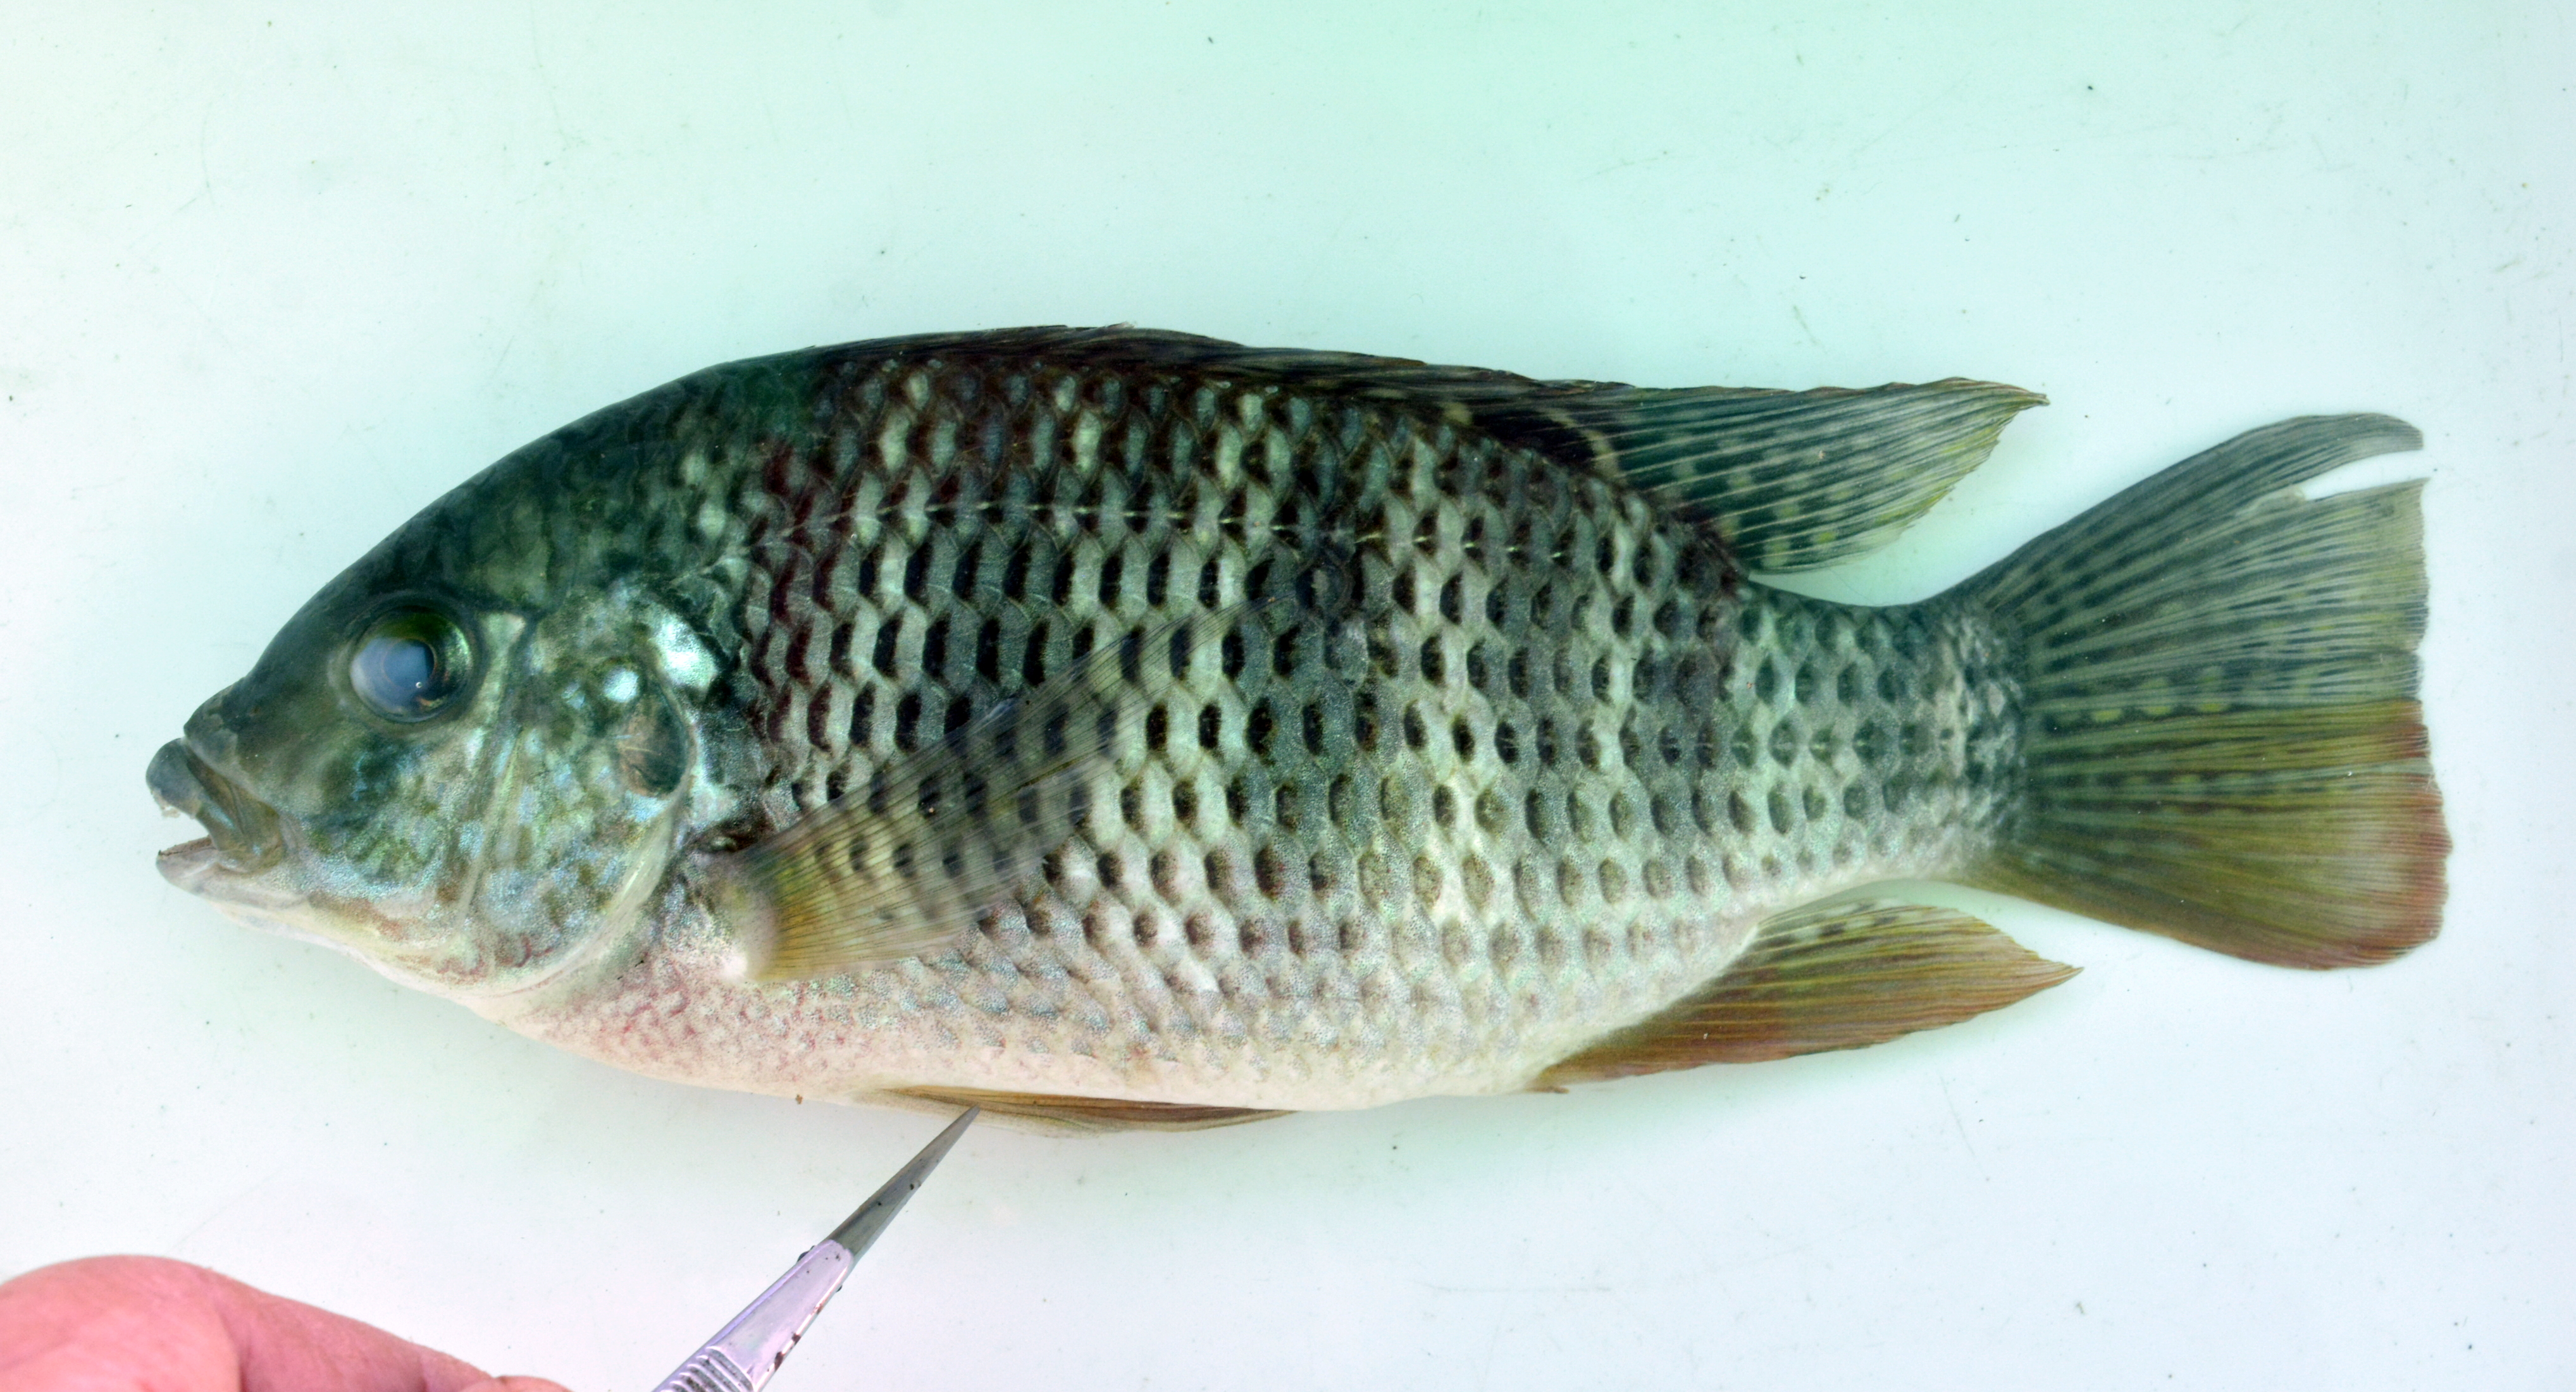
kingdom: Animalia
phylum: Chordata
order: Perciformes
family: Cichlidae
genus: Coptodon
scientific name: Coptodon rendalli
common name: Redbreast tilapia
